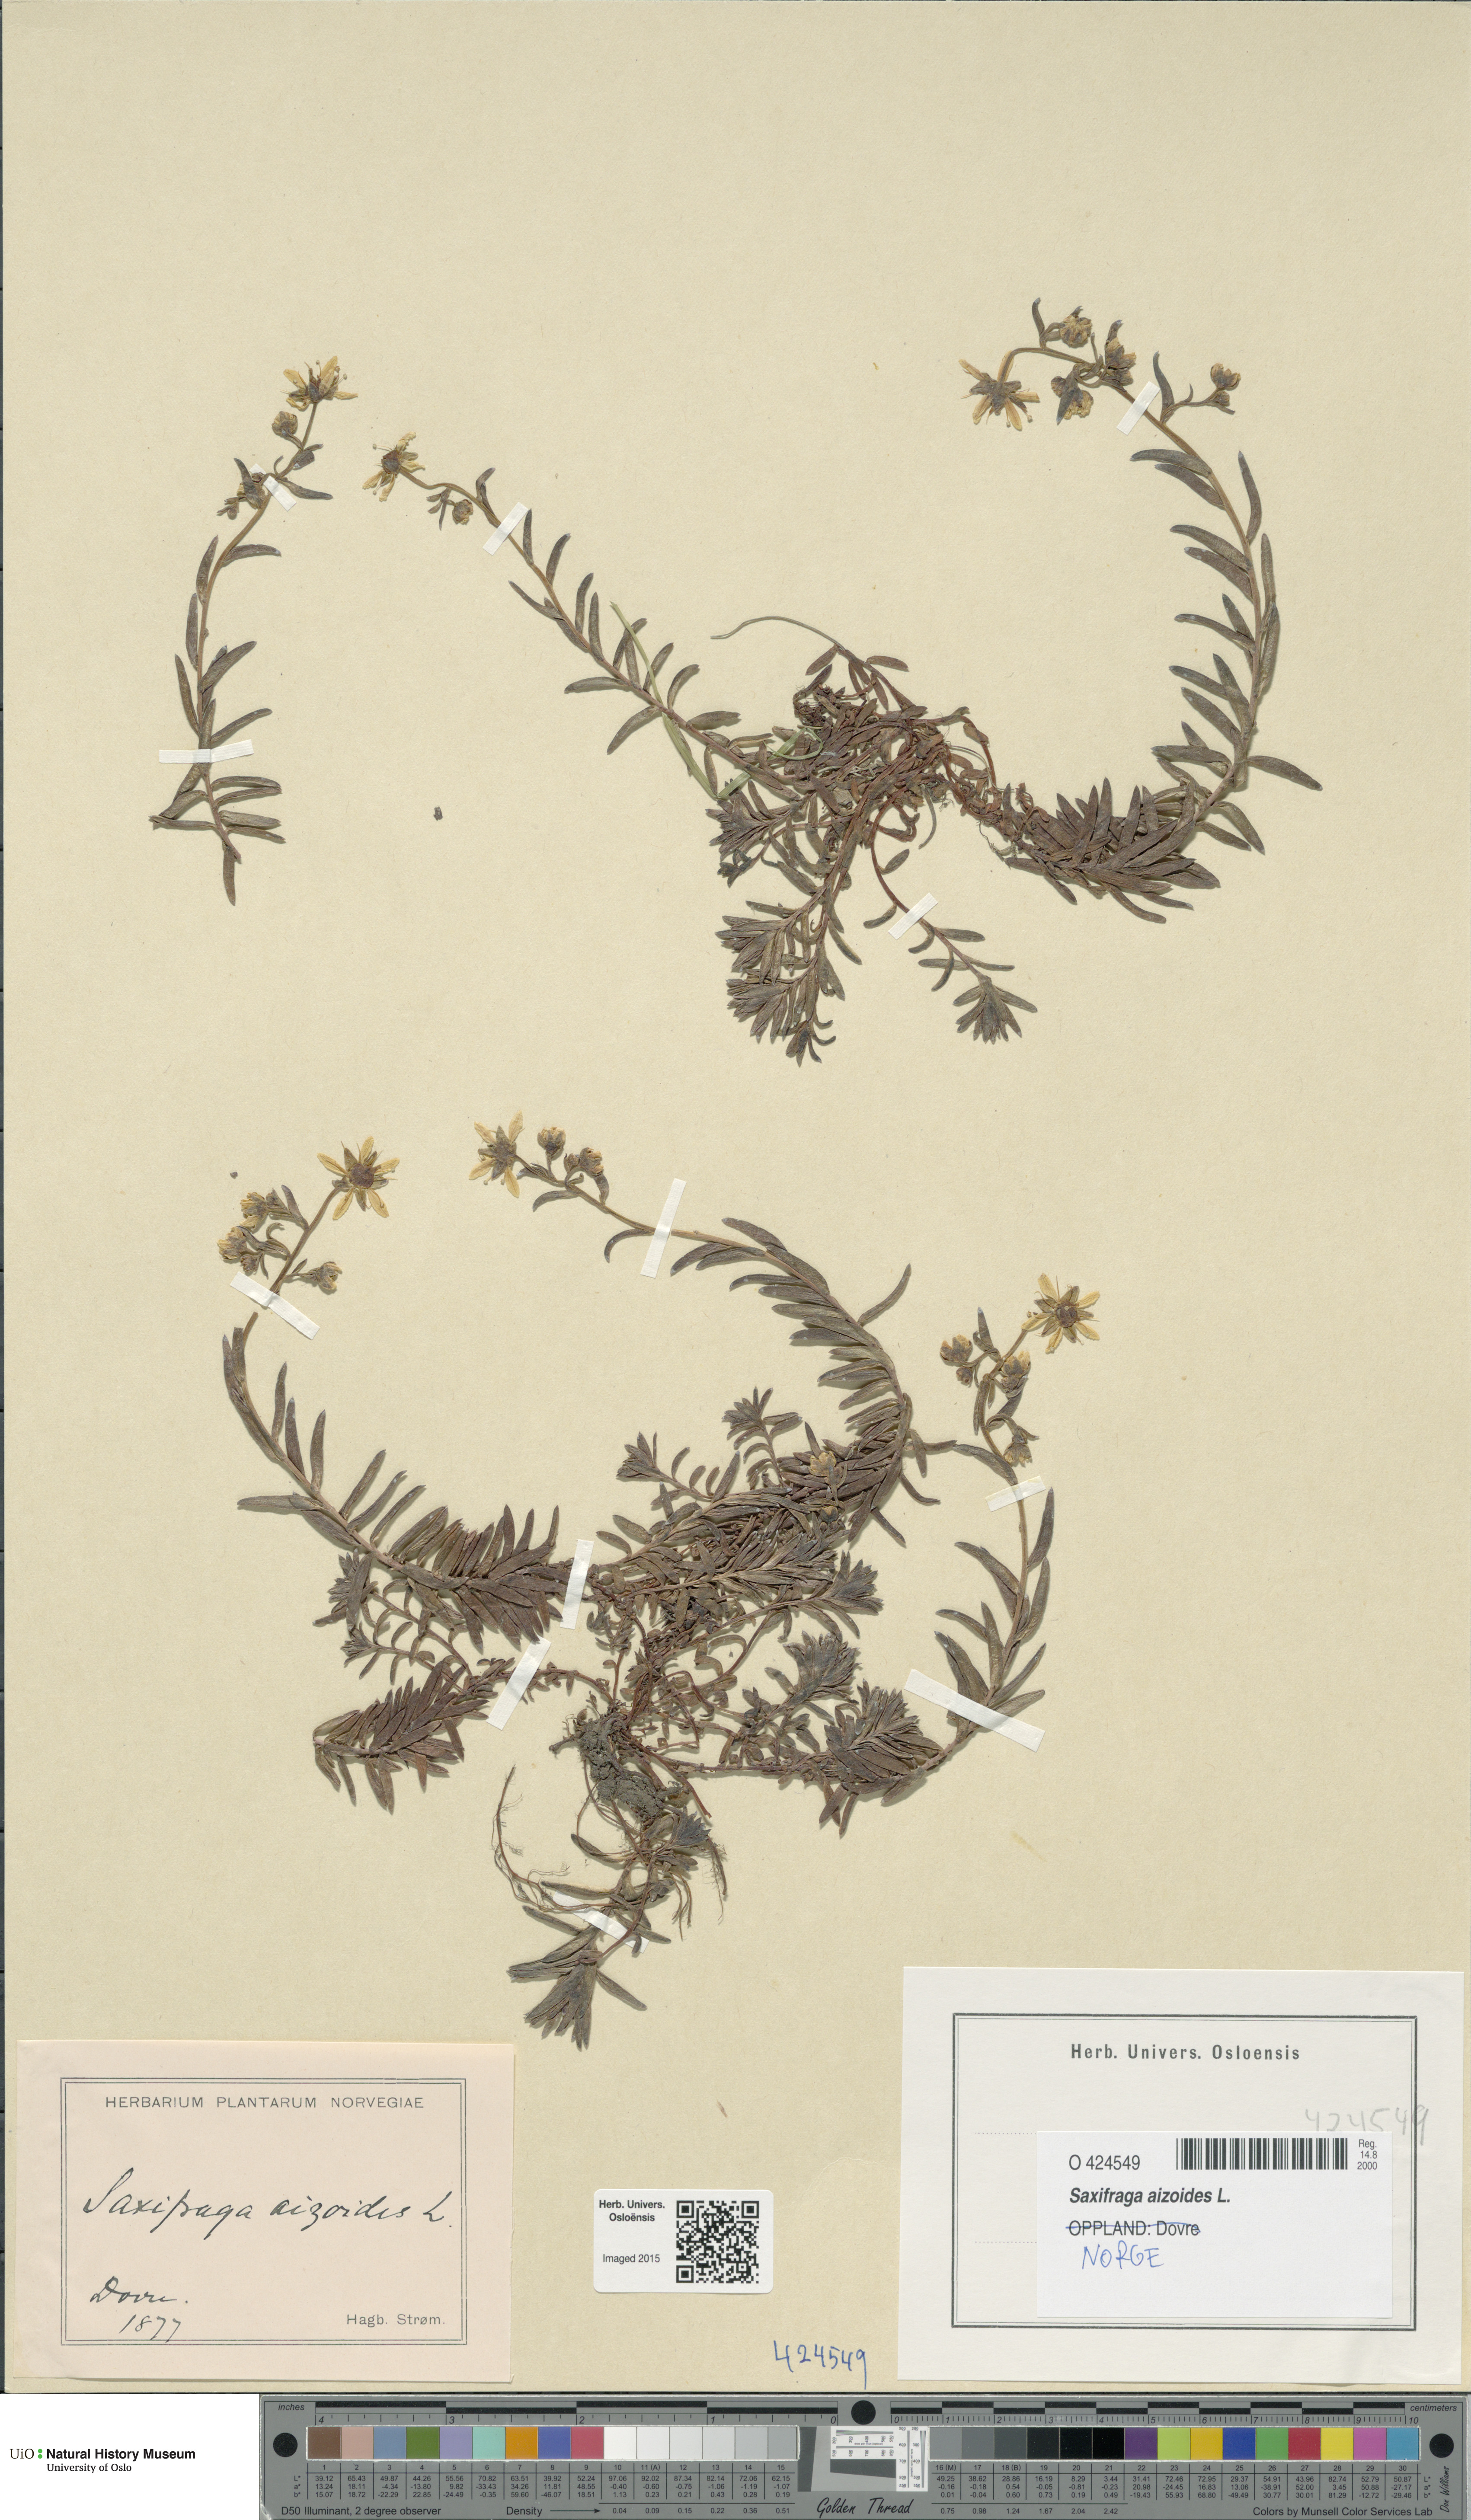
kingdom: Plantae
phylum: Tracheophyta
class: Magnoliopsida
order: Saxifragales
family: Saxifragaceae
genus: Saxifraga
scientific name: Saxifraga aizoides
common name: Yellow mountain saxifrage
